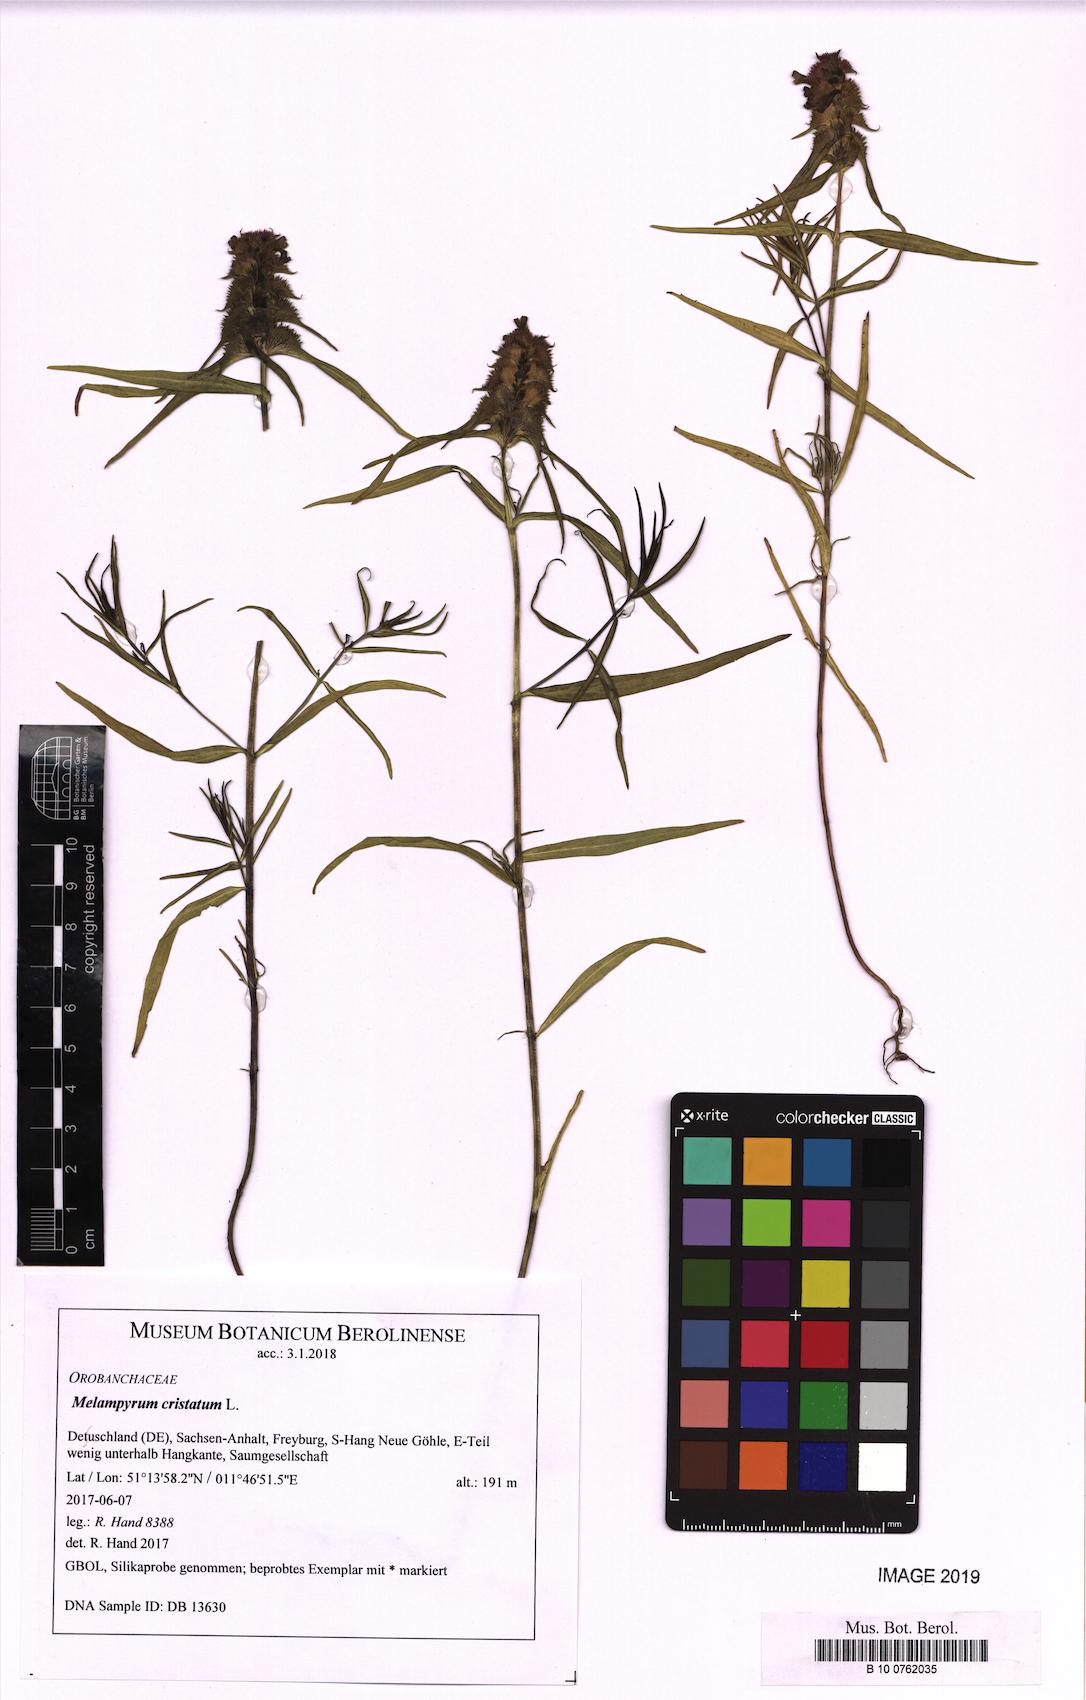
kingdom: Plantae
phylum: Tracheophyta
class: Magnoliopsida
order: Lamiales
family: Orobanchaceae
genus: Melampyrum
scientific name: Melampyrum cristatum
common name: Crested cow-wheat
